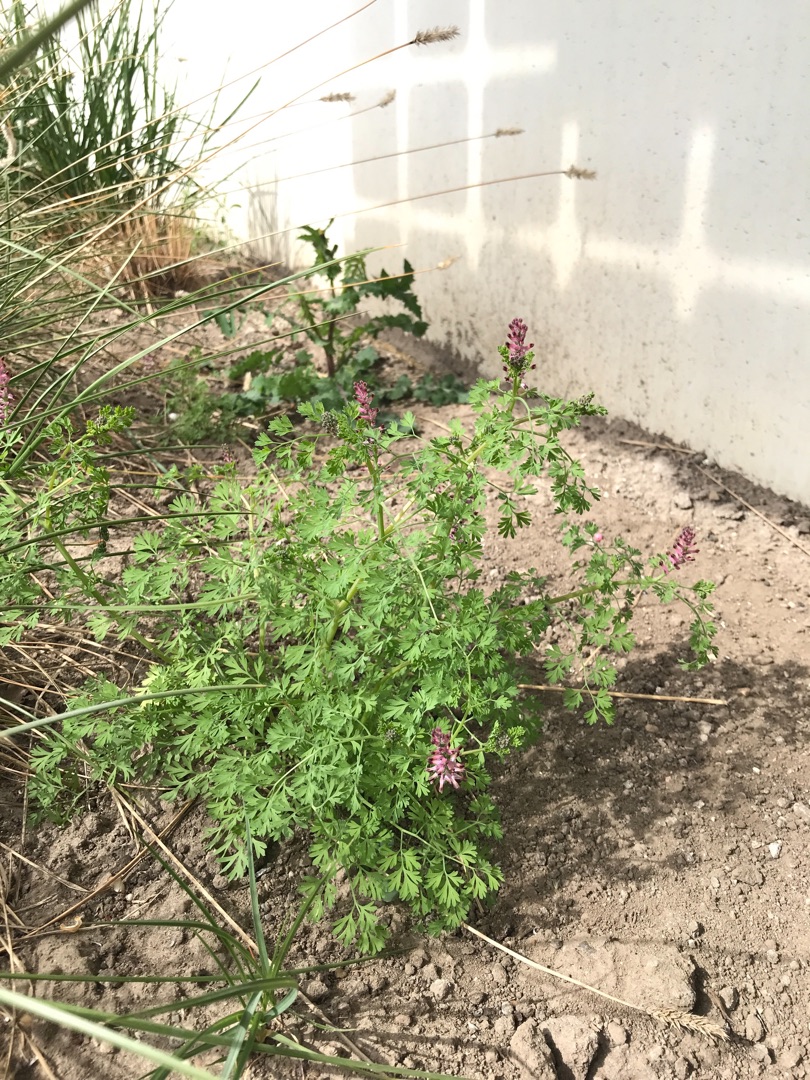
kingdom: Plantae
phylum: Tracheophyta
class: Magnoliopsida
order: Ranunculales
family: Papaveraceae
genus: Fumaria
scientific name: Fumaria officinalis
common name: Læge-jordrøg
